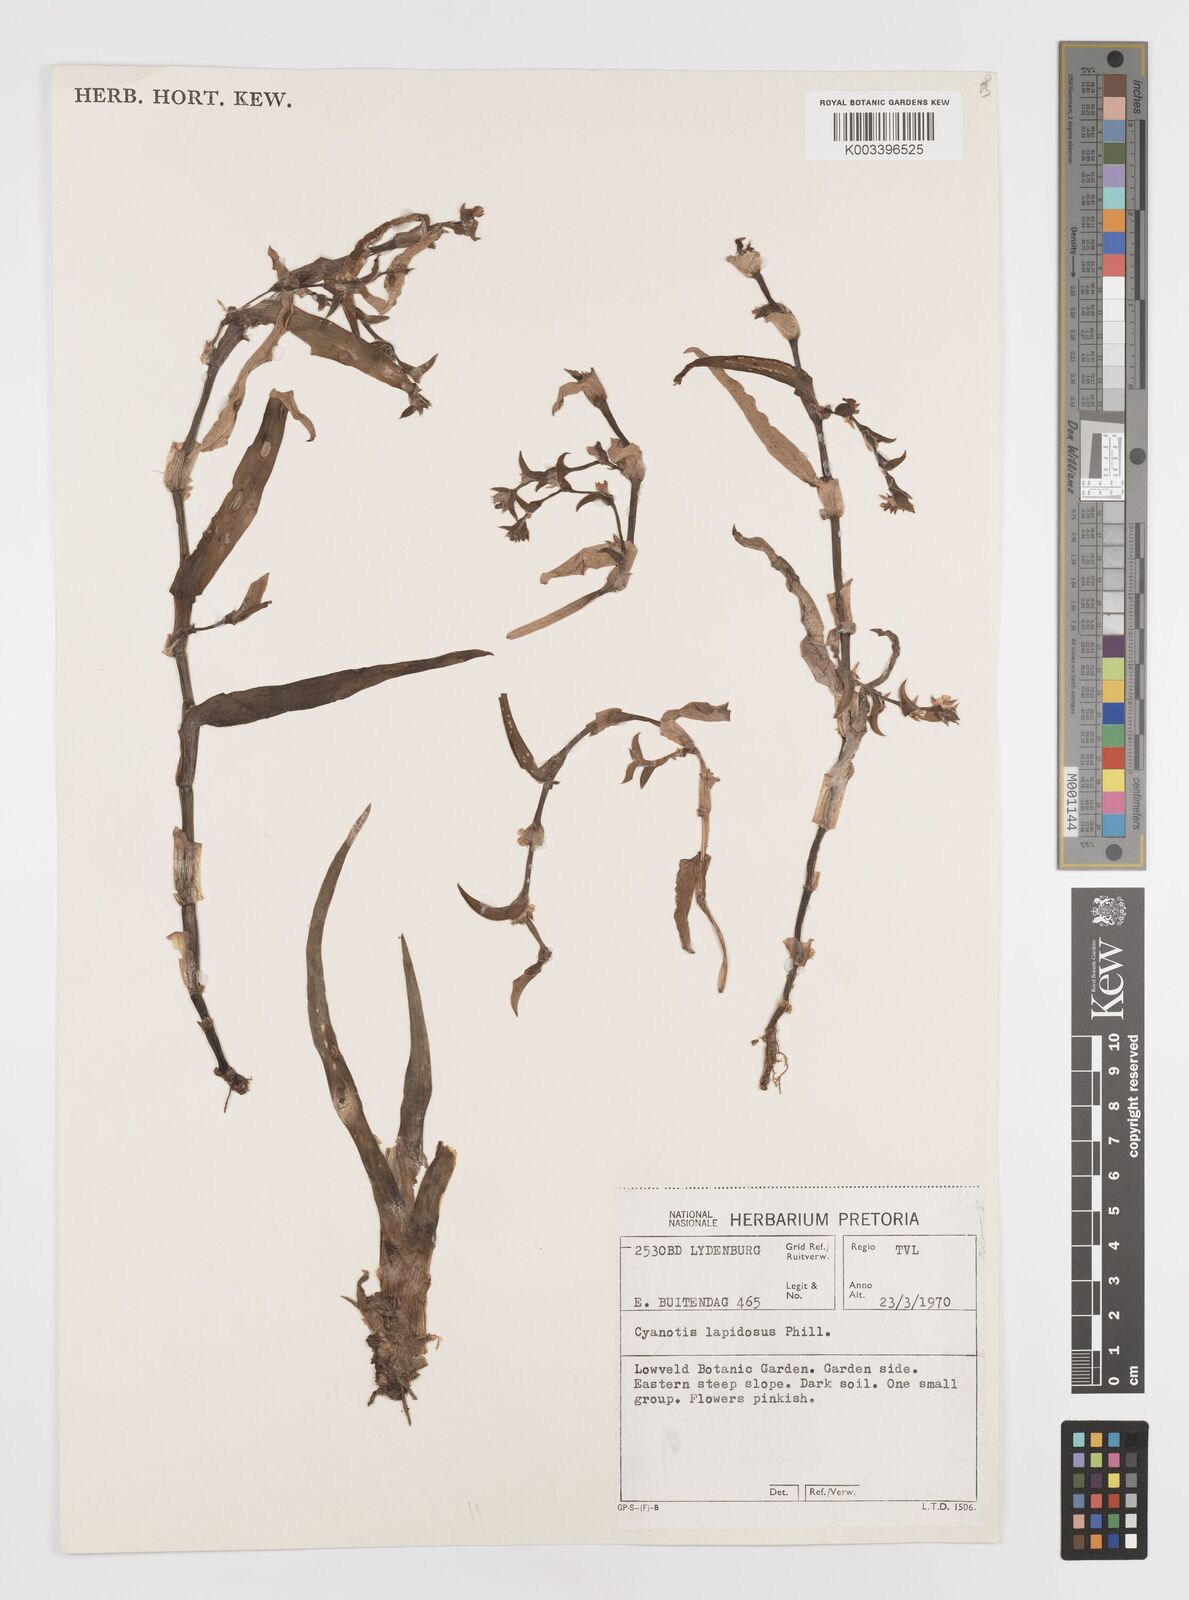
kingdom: Plantae
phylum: Tracheophyta
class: Liliopsida
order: Commelinales
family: Commelinaceae
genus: Cyanotis
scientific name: Cyanotis lapidosa
